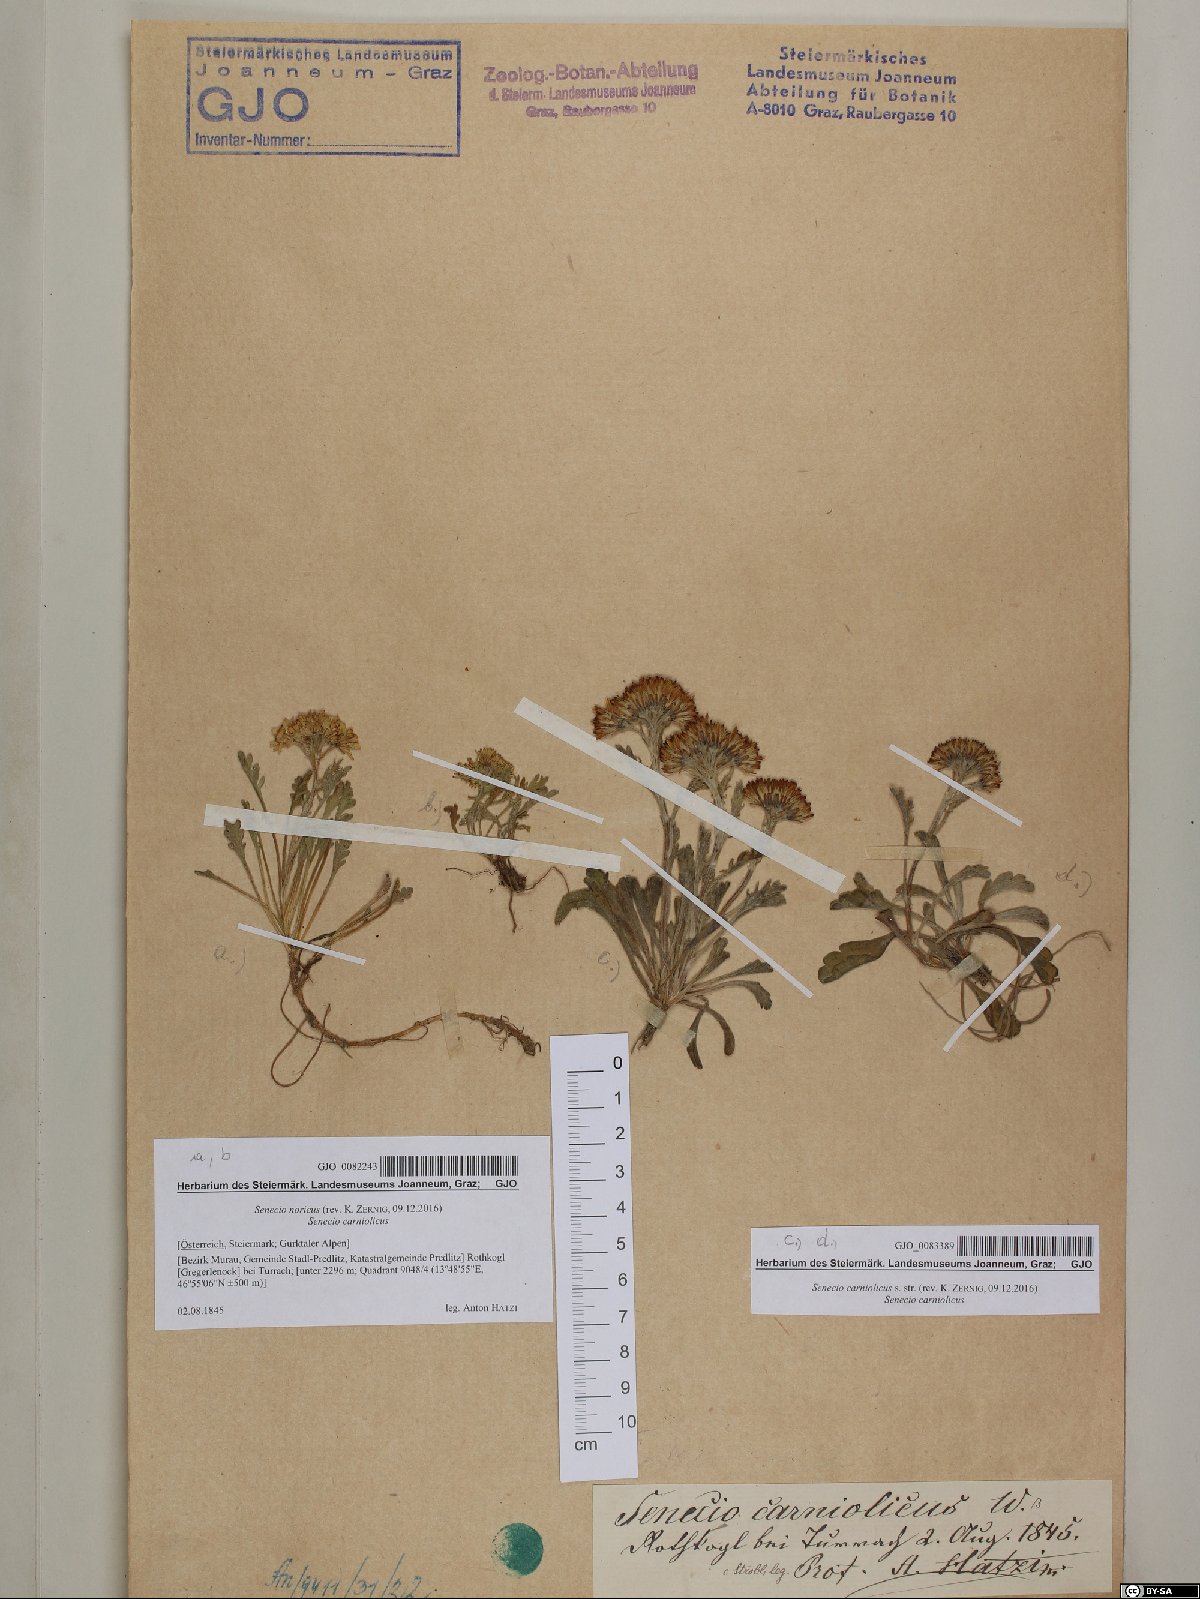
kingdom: Plantae
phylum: Tracheophyta
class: Magnoliopsida
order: Asterales
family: Asteraceae
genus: Jacobaea
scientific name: Jacobaea norica
